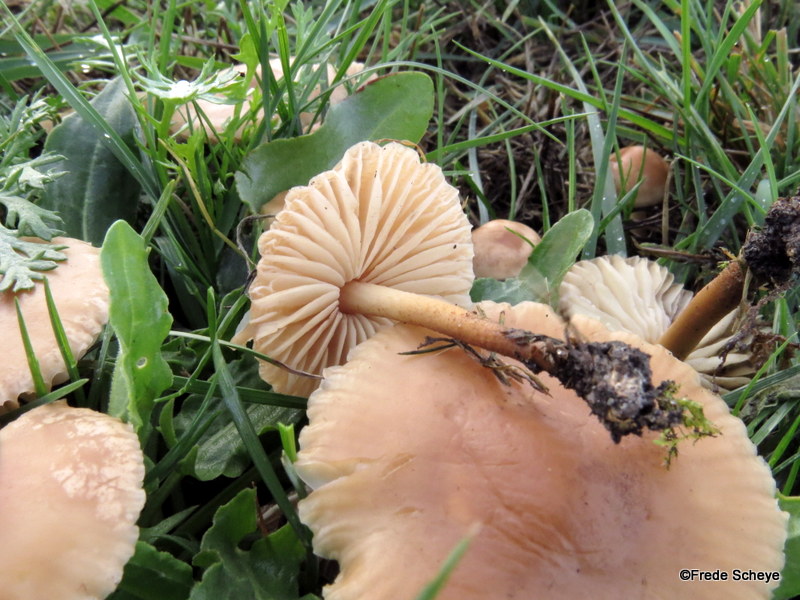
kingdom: Fungi
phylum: Basidiomycota
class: Agaricomycetes
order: Agaricales
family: Marasmiaceae
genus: Marasmius
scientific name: Marasmius oreades
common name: elledans-bruskhat
